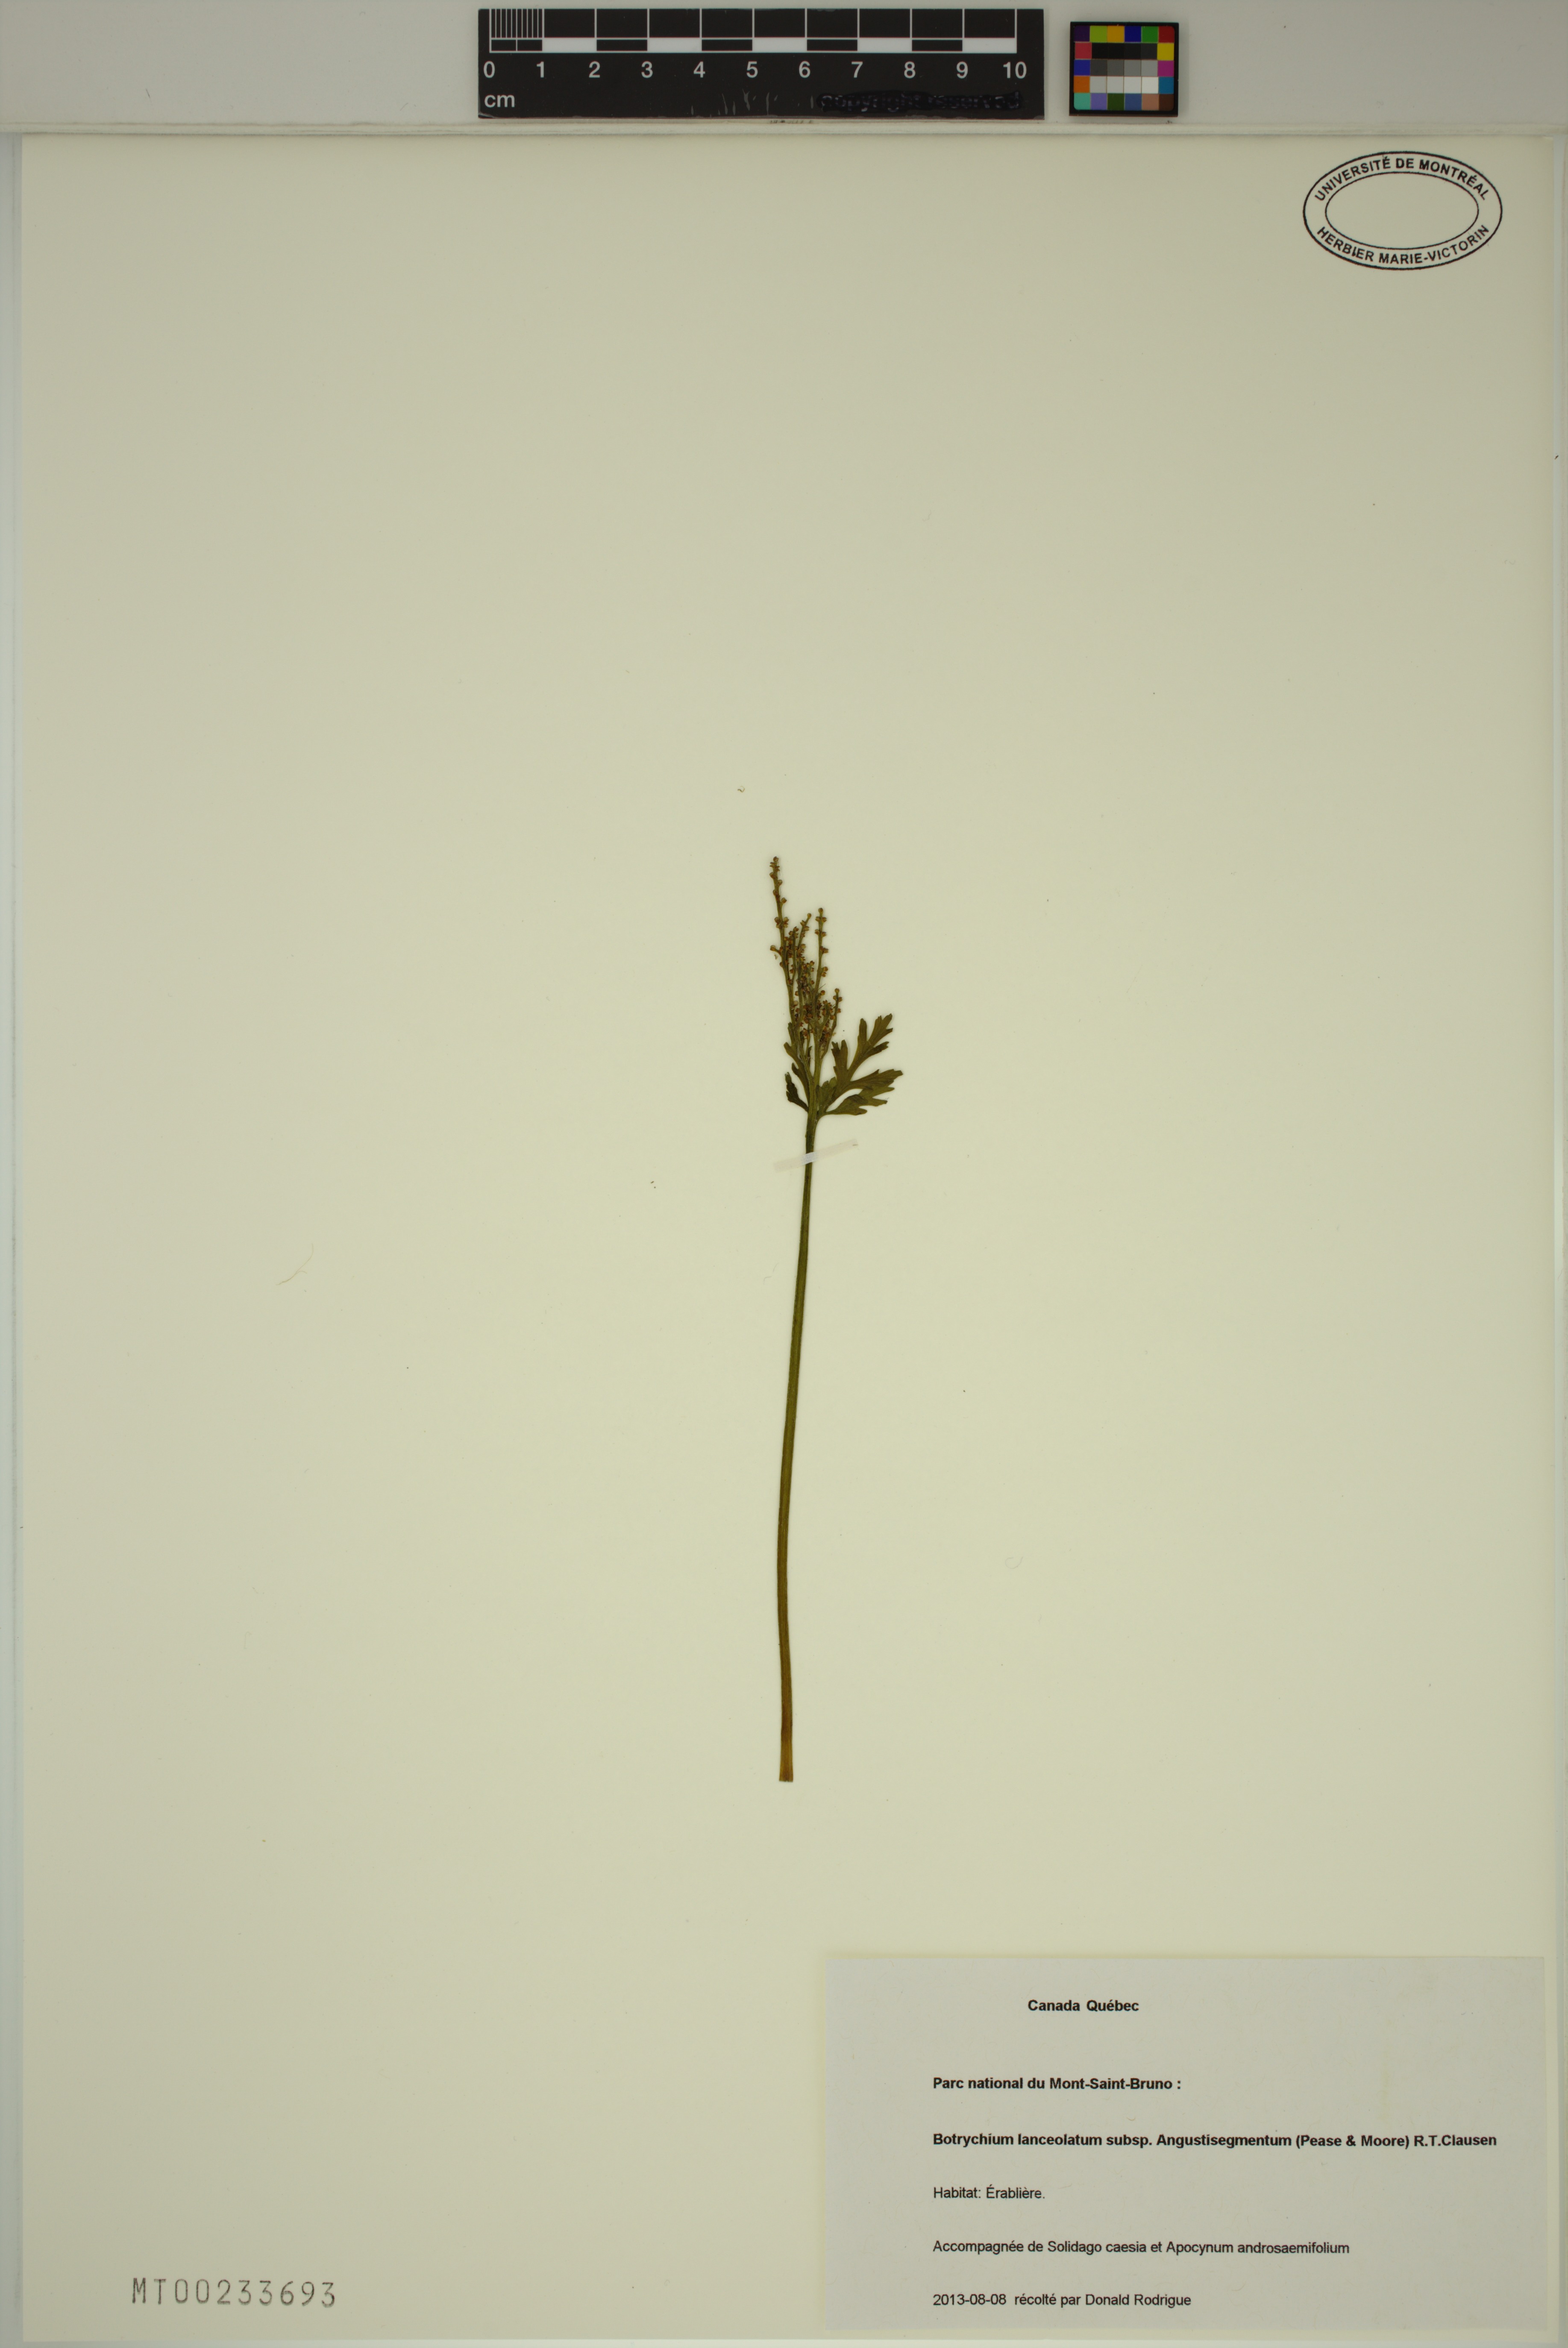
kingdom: Plantae
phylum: Tracheophyta
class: Polypodiopsida
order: Ophioglossales
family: Ophioglossaceae
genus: Botrychium
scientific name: Botrychium angustisegmentum
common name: Narrow triangle moonwort
